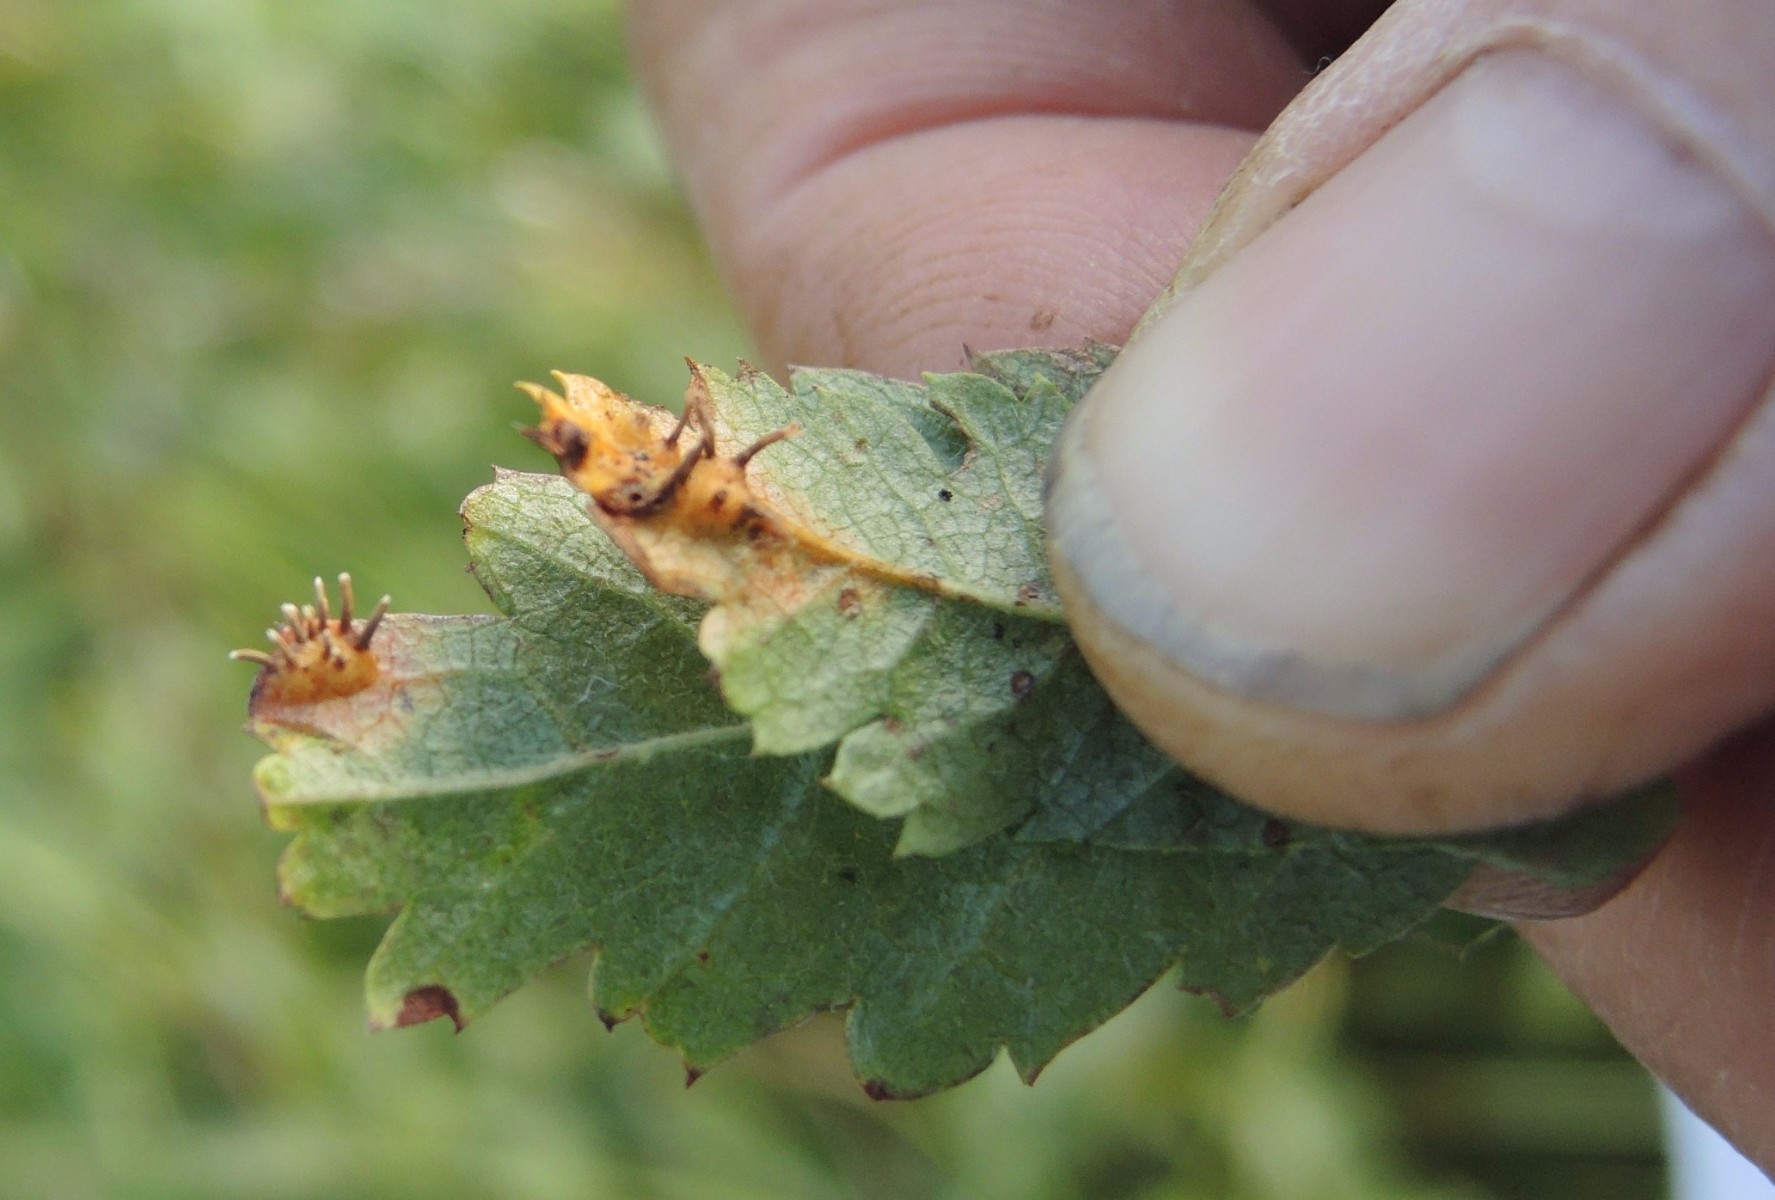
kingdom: Fungi
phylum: Basidiomycota
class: Pucciniomycetes
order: Pucciniales
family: Gymnosporangiaceae
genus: Gymnosporangium
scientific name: Gymnosporangium cornutum
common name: rønnehorn-bævrerust
